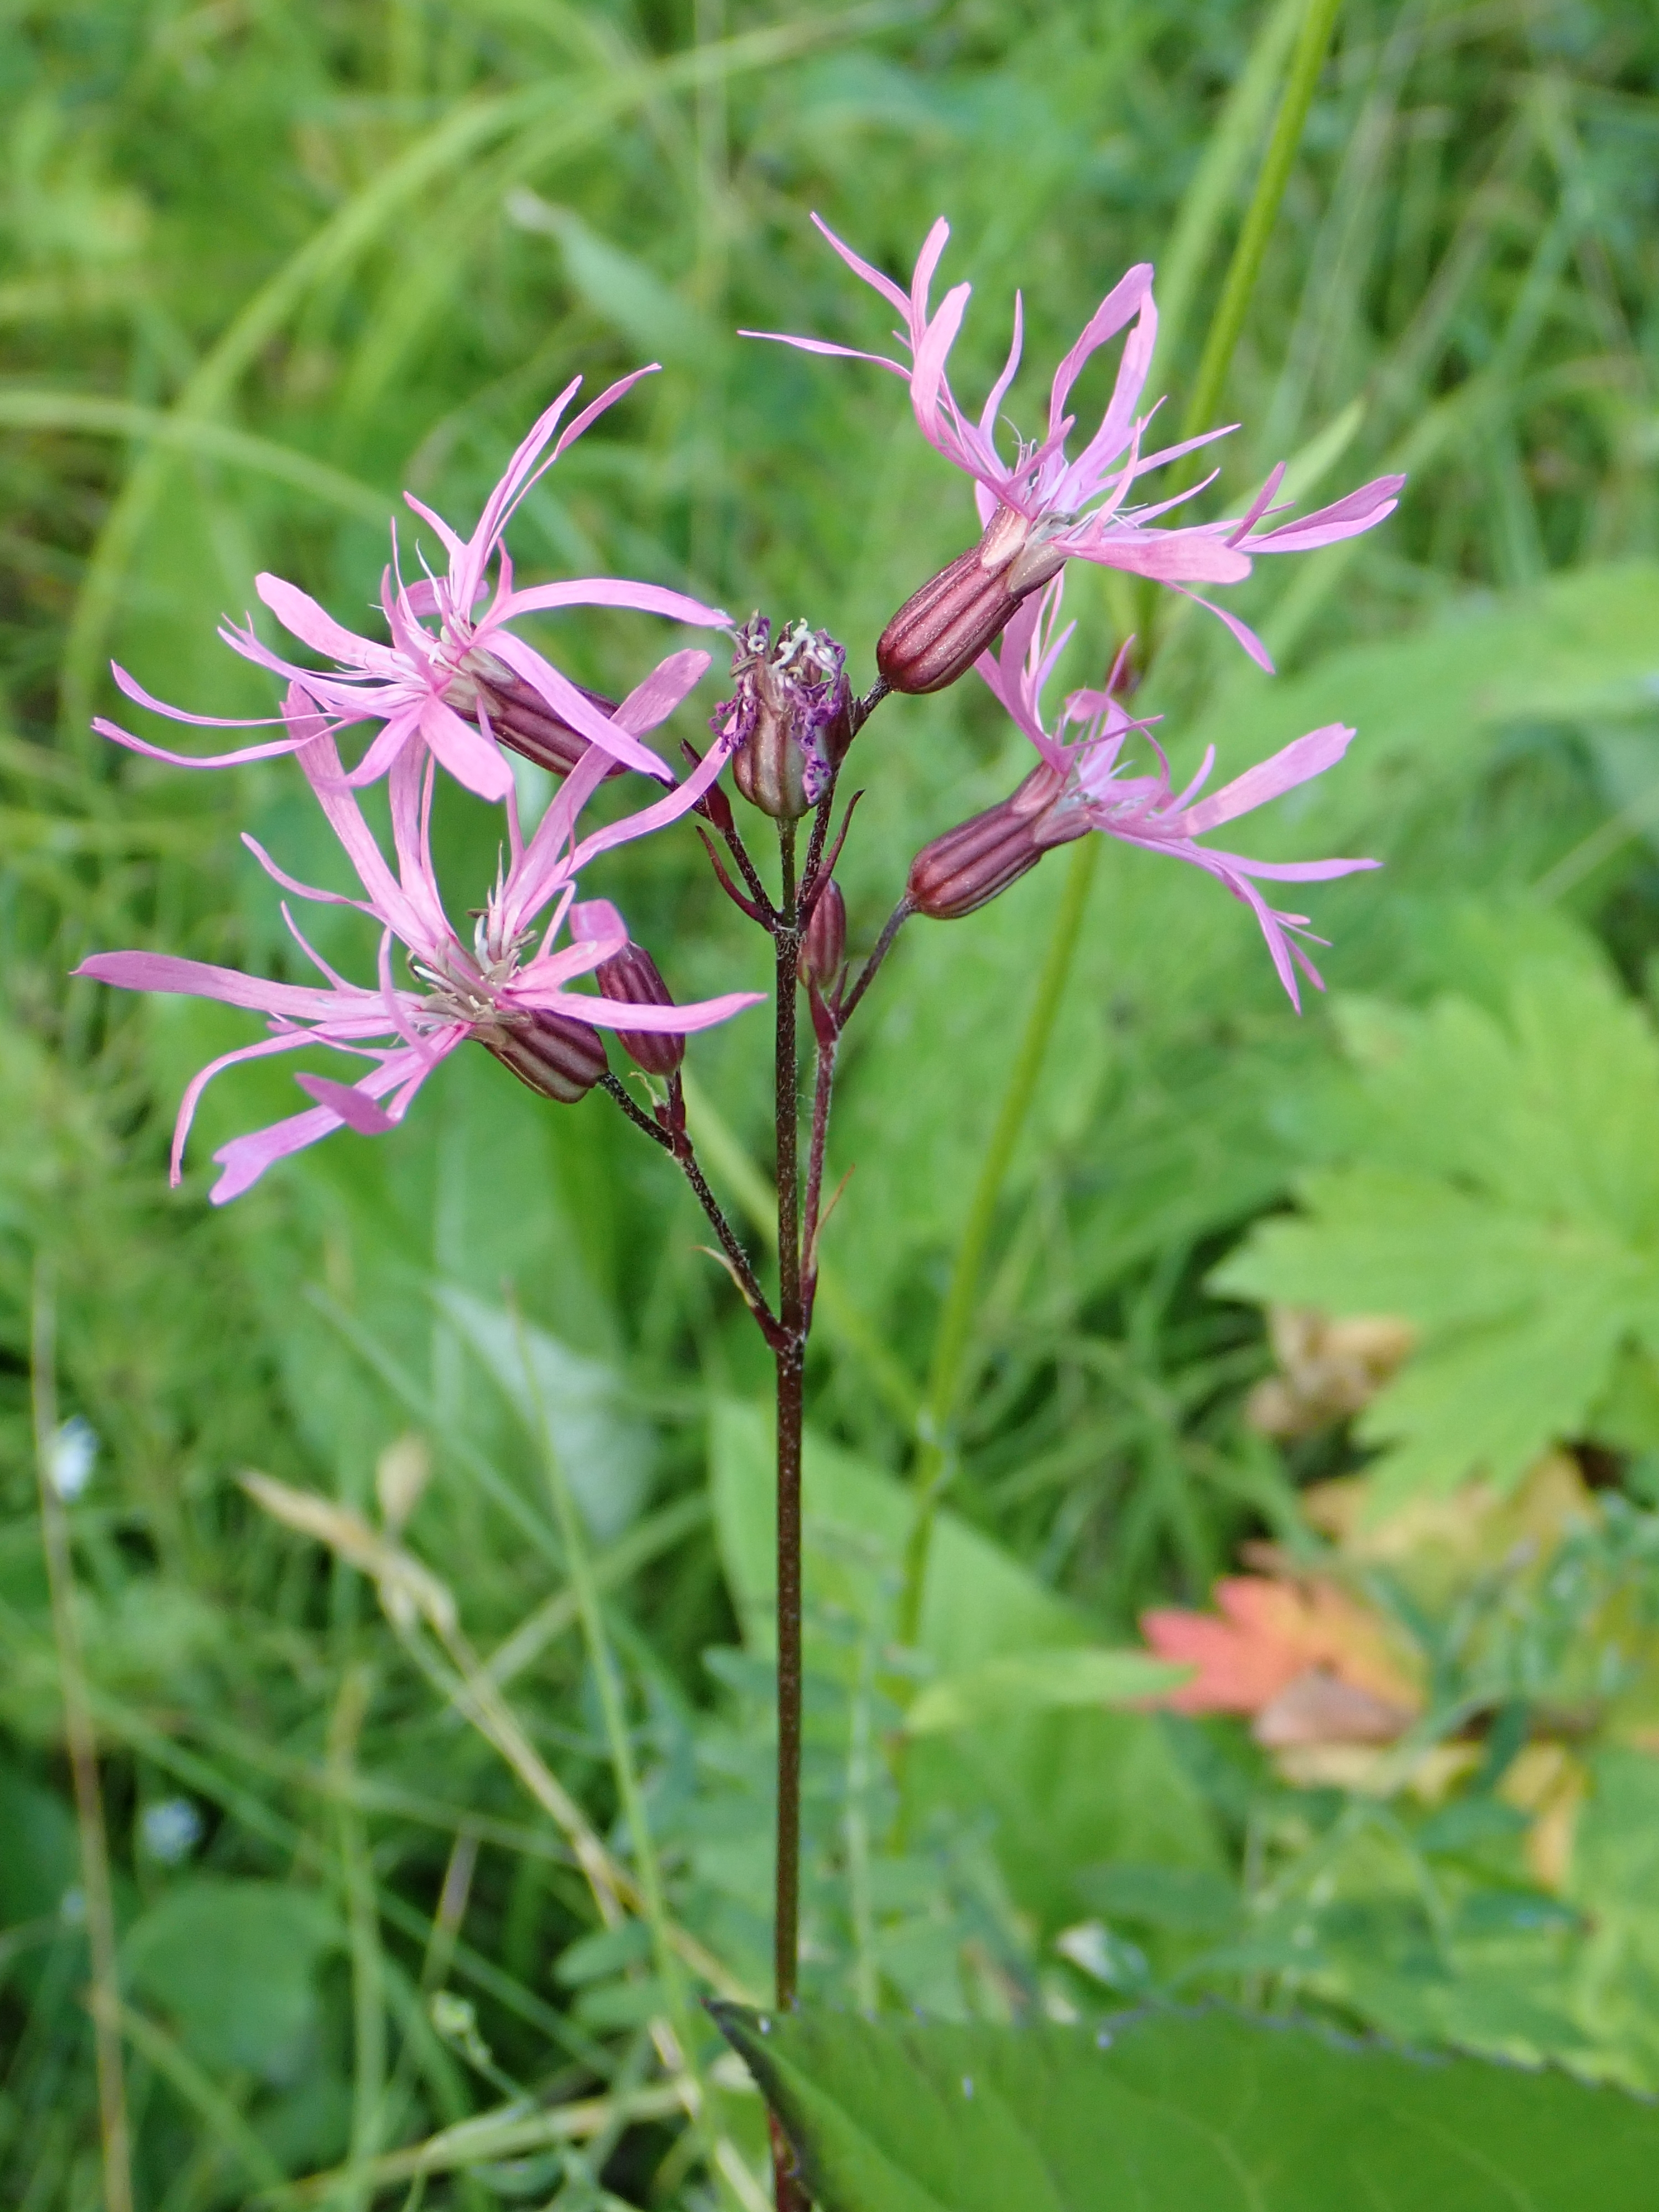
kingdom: Plantae
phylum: Tracheophyta
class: Magnoliopsida
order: Caryophyllales
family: Caryophyllaceae
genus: Silene
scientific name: Silene flos-cuculi
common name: Ragged-robin
